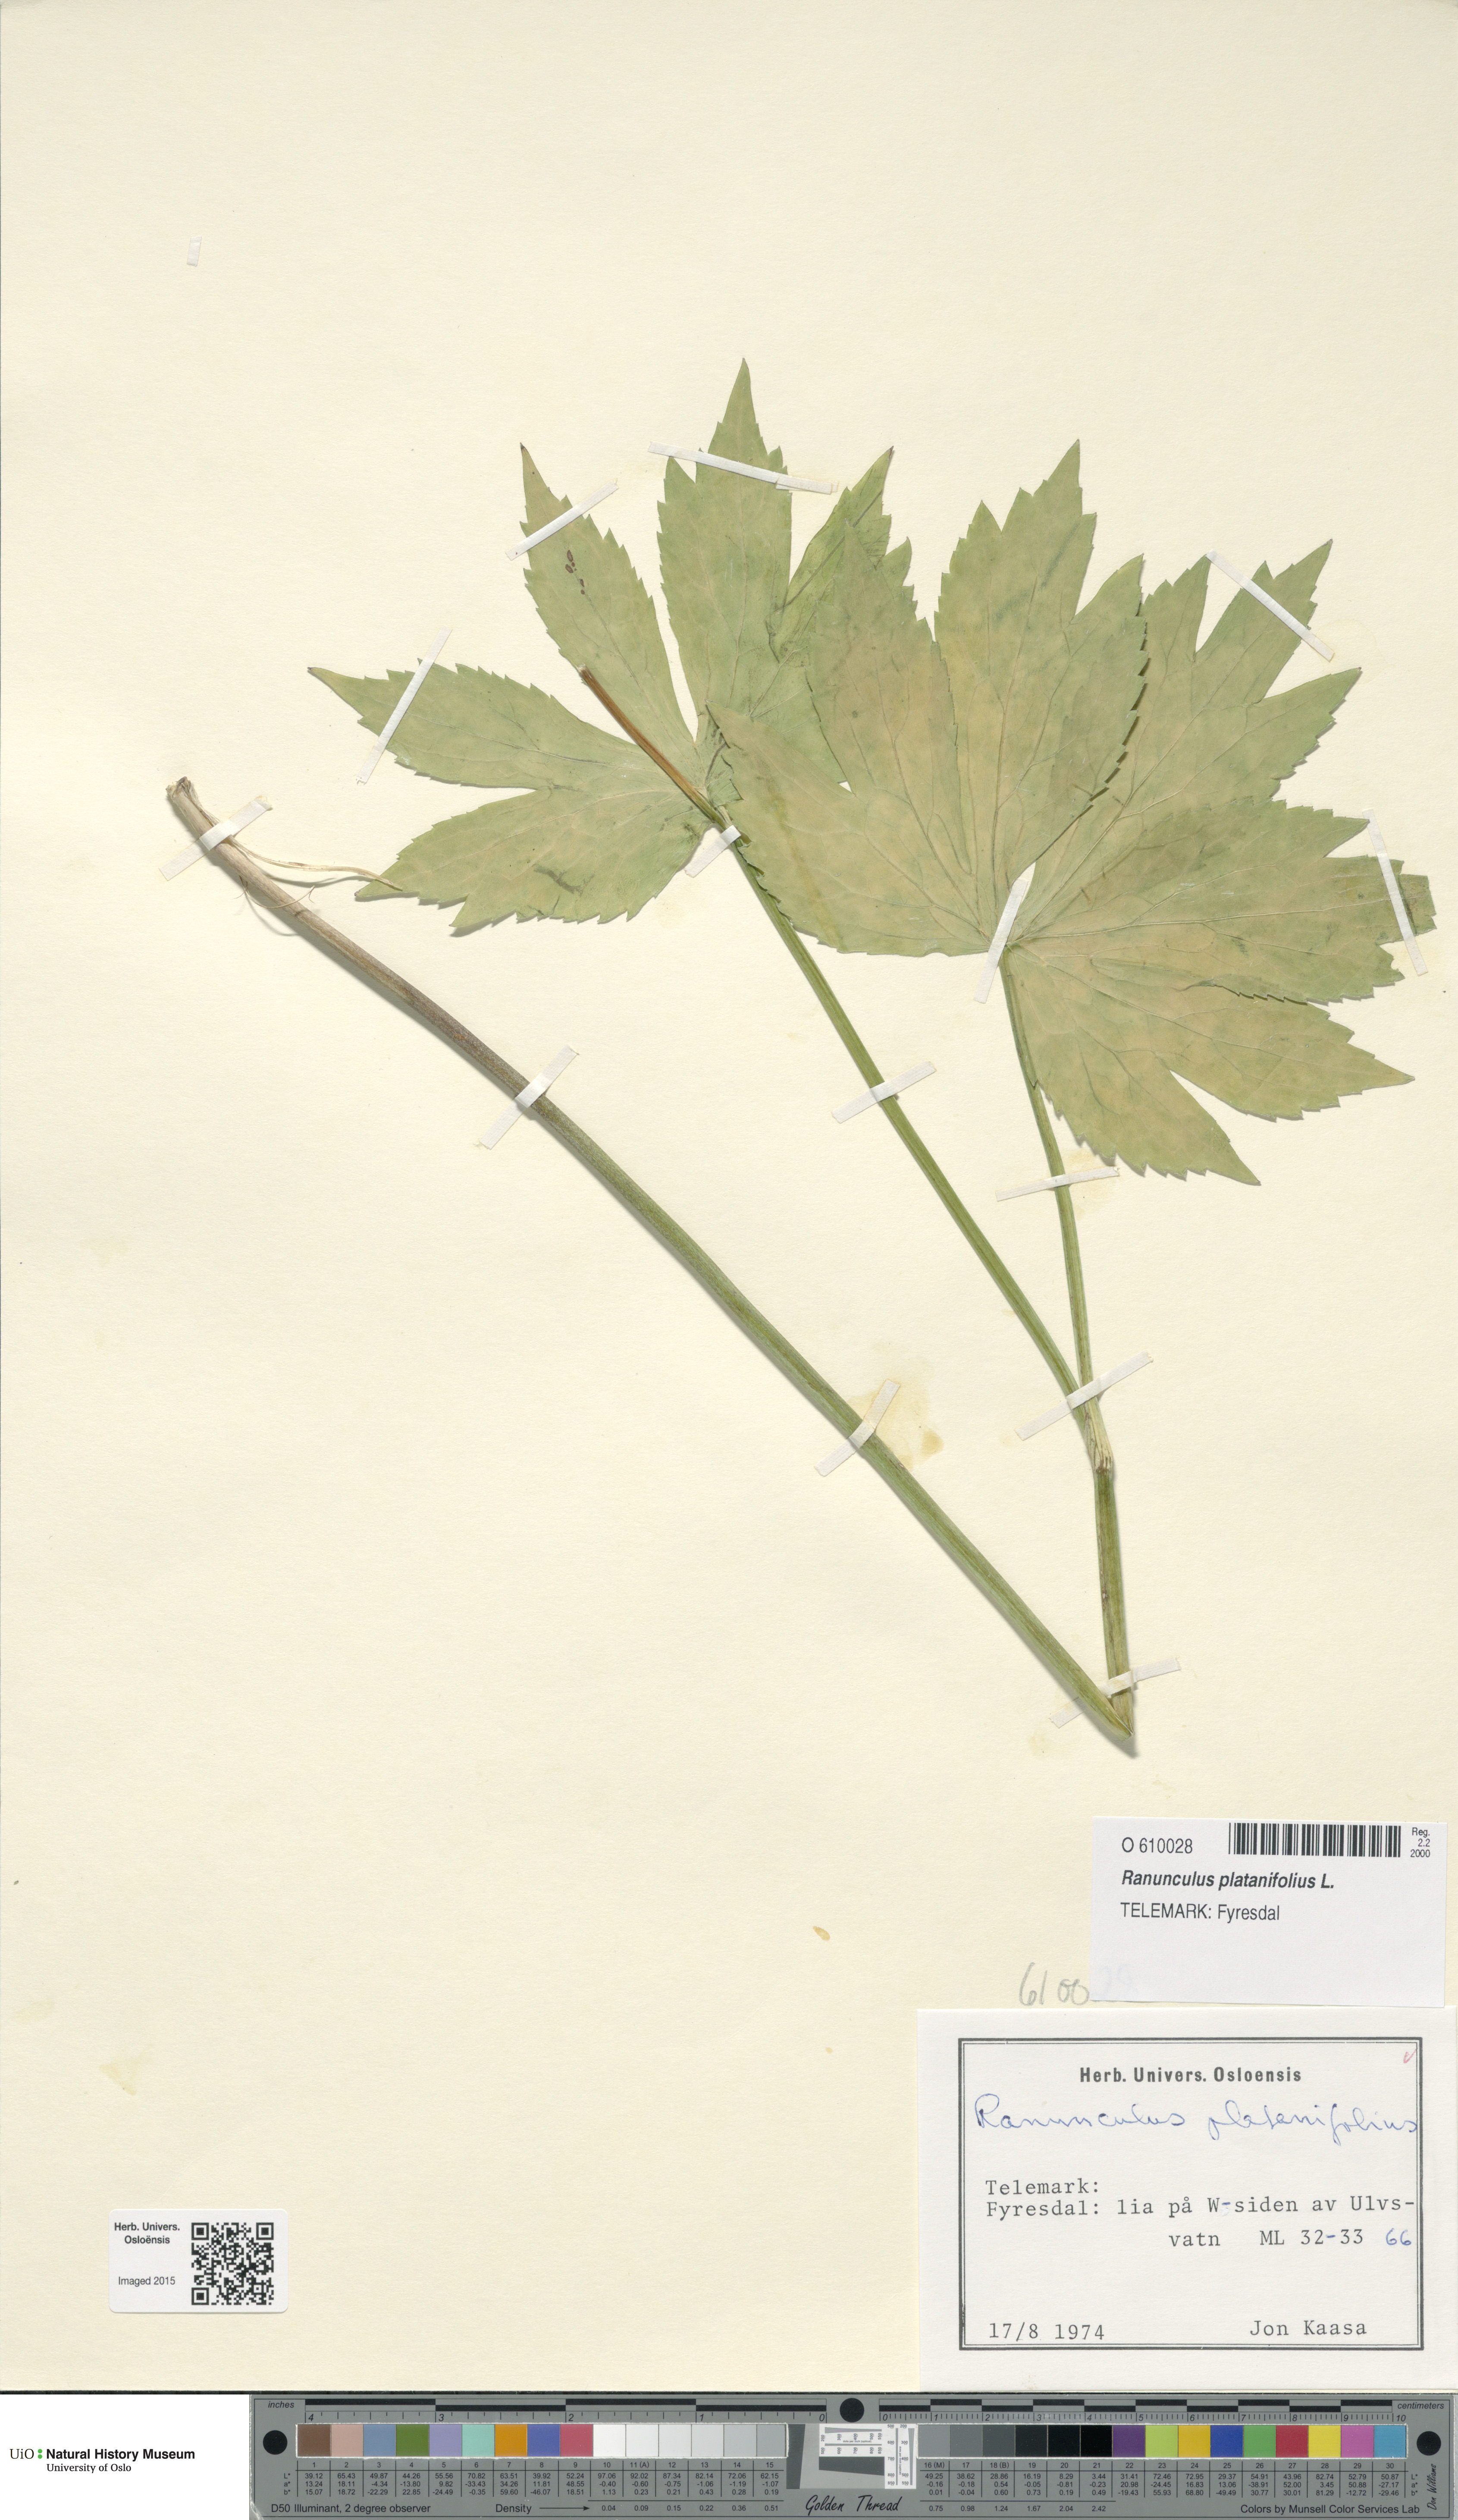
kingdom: Plantae
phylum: Tracheophyta
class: Magnoliopsida
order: Ranunculales
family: Ranunculaceae
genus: Ranunculus
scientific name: Ranunculus platanifolius
